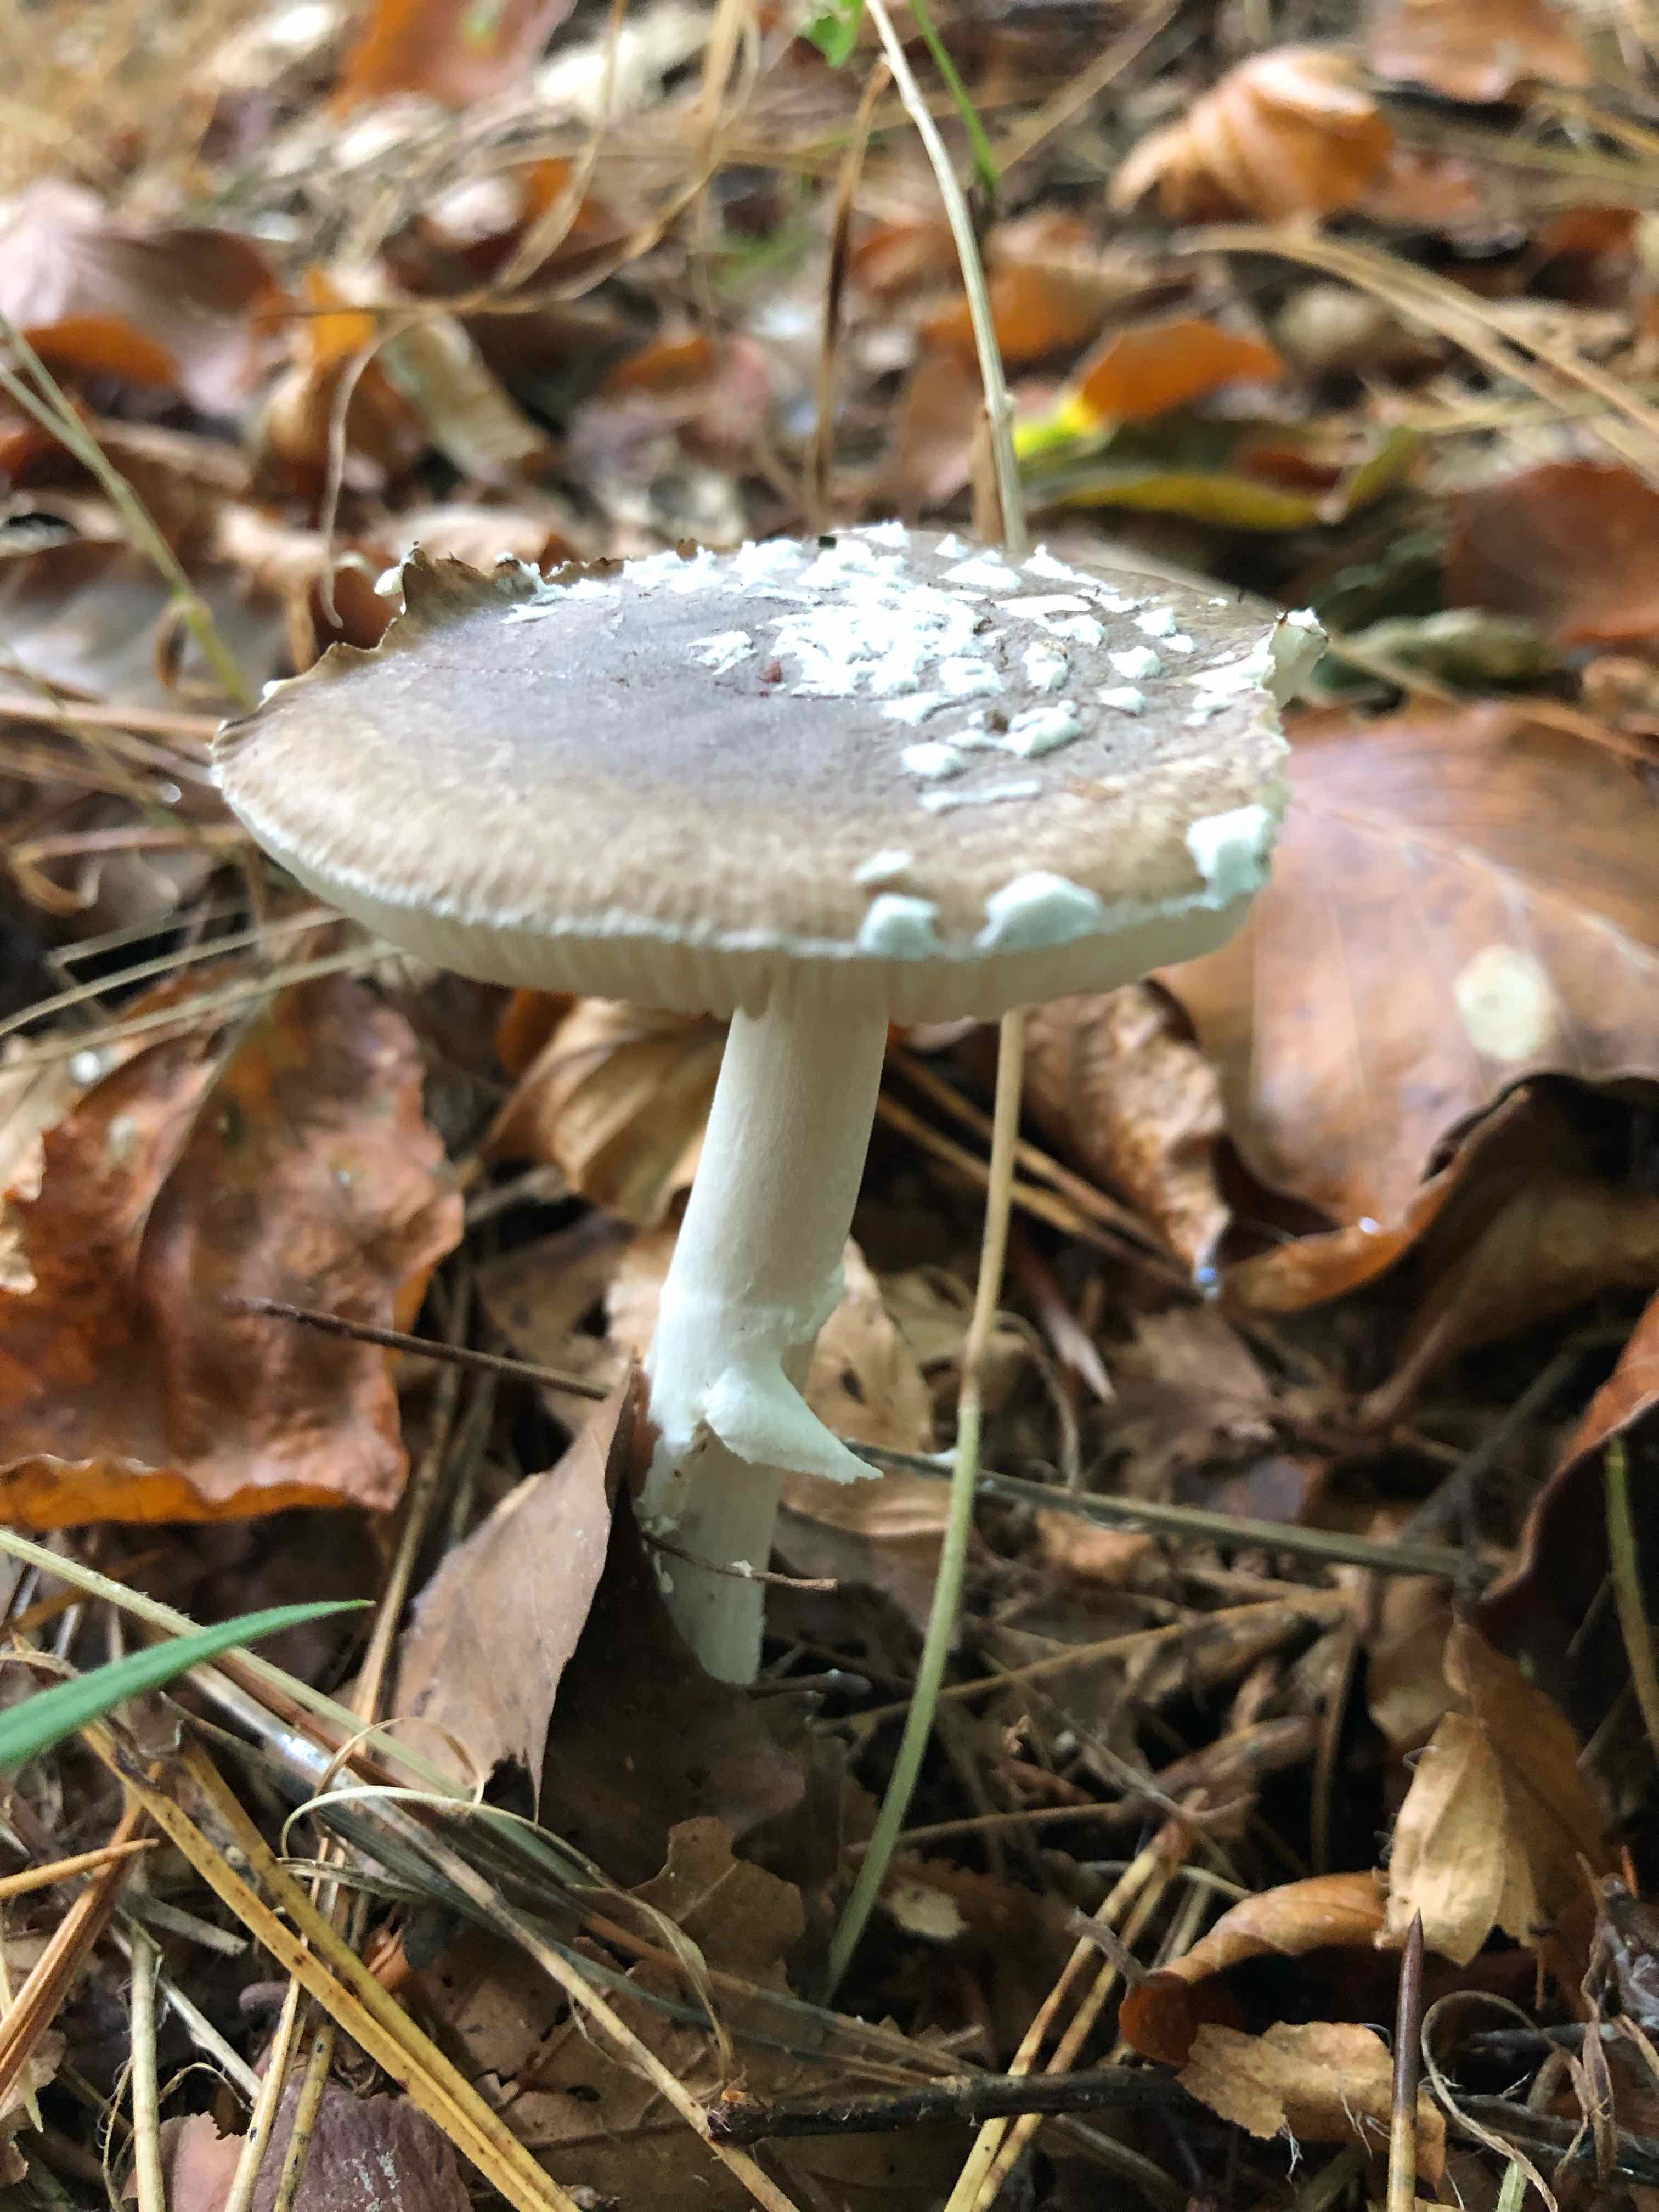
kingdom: Fungi
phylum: Basidiomycota
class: Agaricomycetes
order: Agaricales
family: Amanitaceae
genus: Amanita
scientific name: Amanita pantherina
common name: panter-fluesvamp
